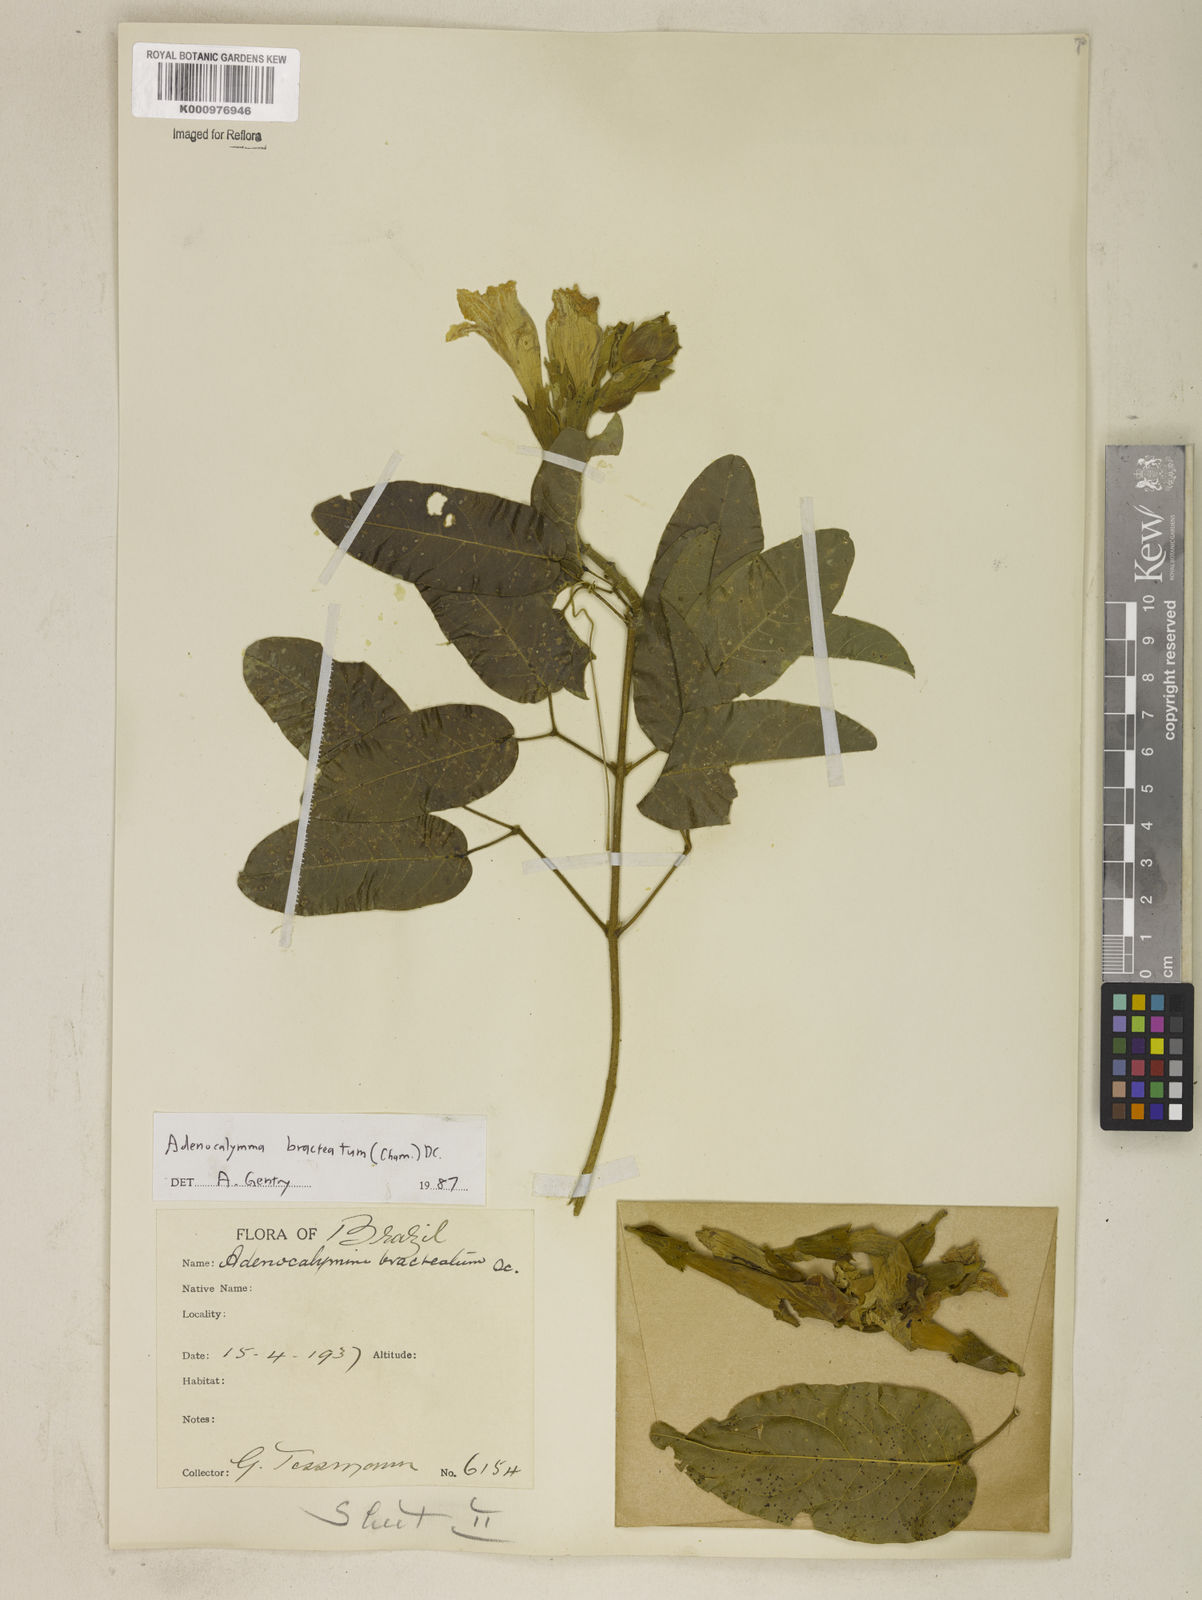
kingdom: Plantae
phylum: Tracheophyta
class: Magnoliopsida
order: Lamiales
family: Bignoniaceae
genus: Adenocalymma
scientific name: Adenocalymma bracteatum
